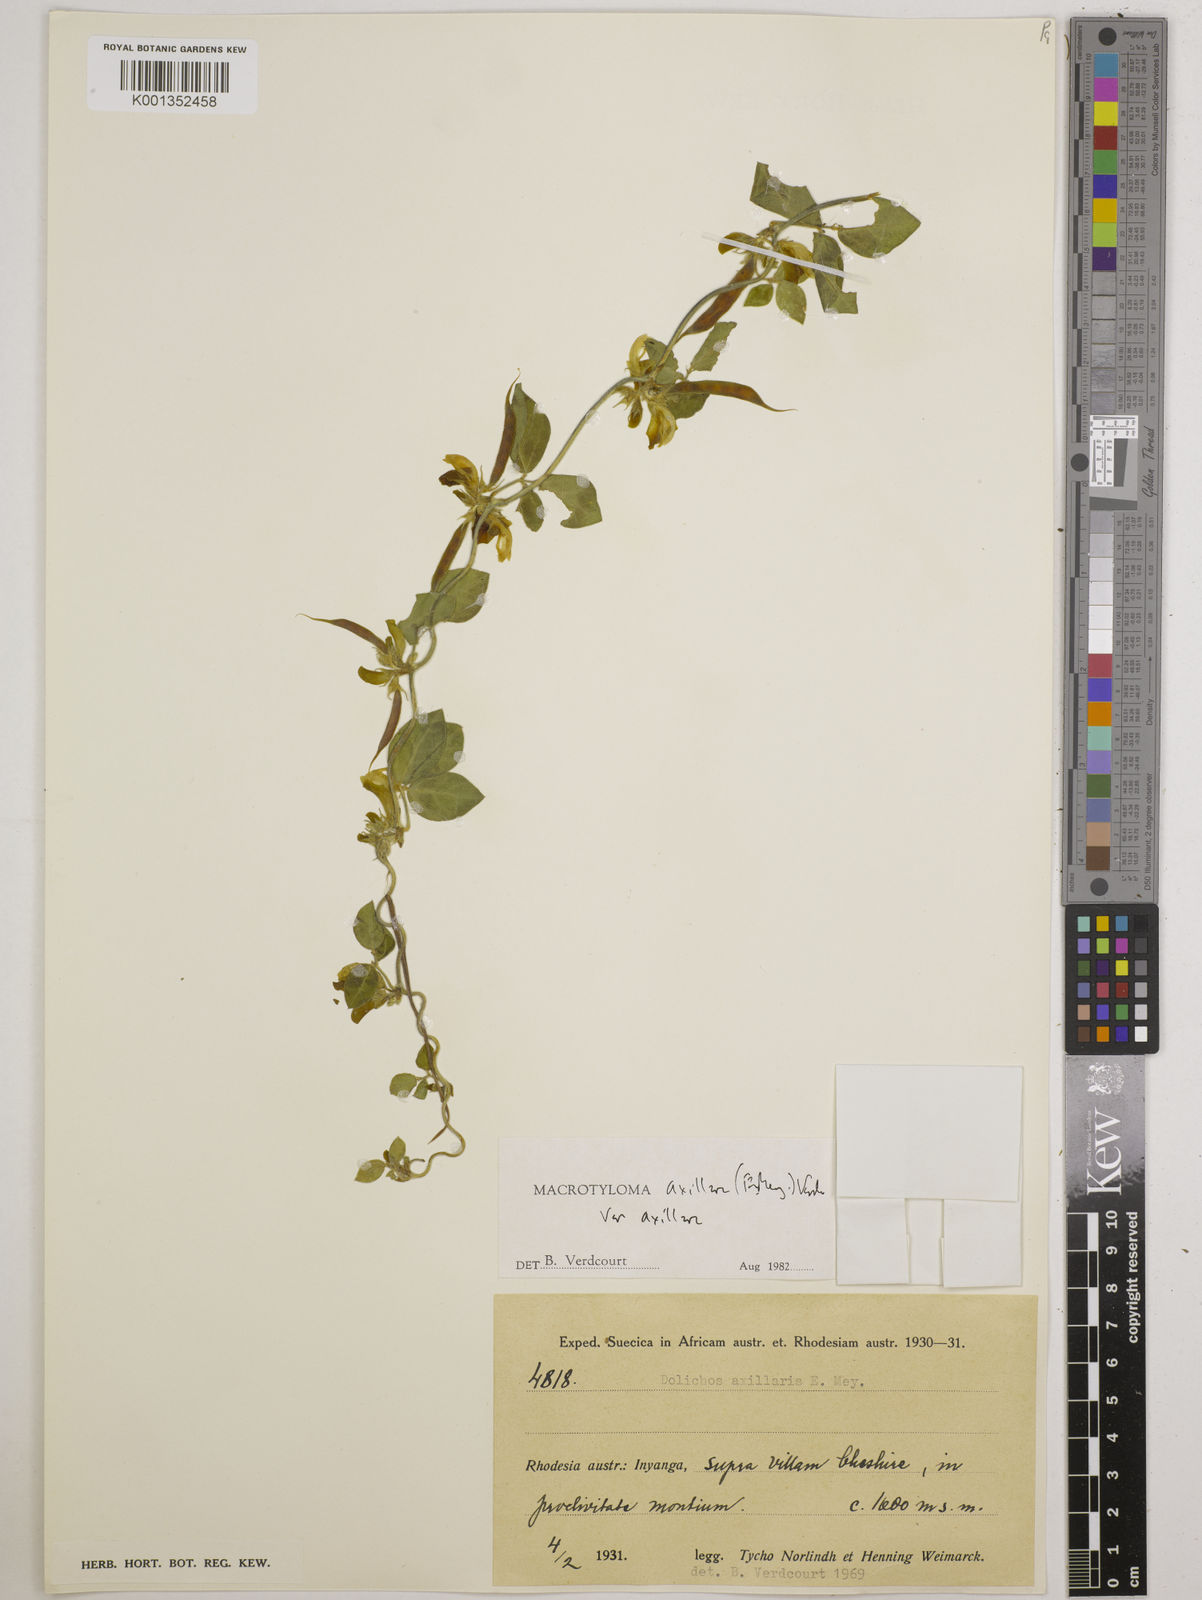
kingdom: Plantae
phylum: Tracheophyta
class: Magnoliopsida
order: Fabales
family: Fabaceae
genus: Macrotyloma
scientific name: Macrotyloma axillare
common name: Perennial horsegram
